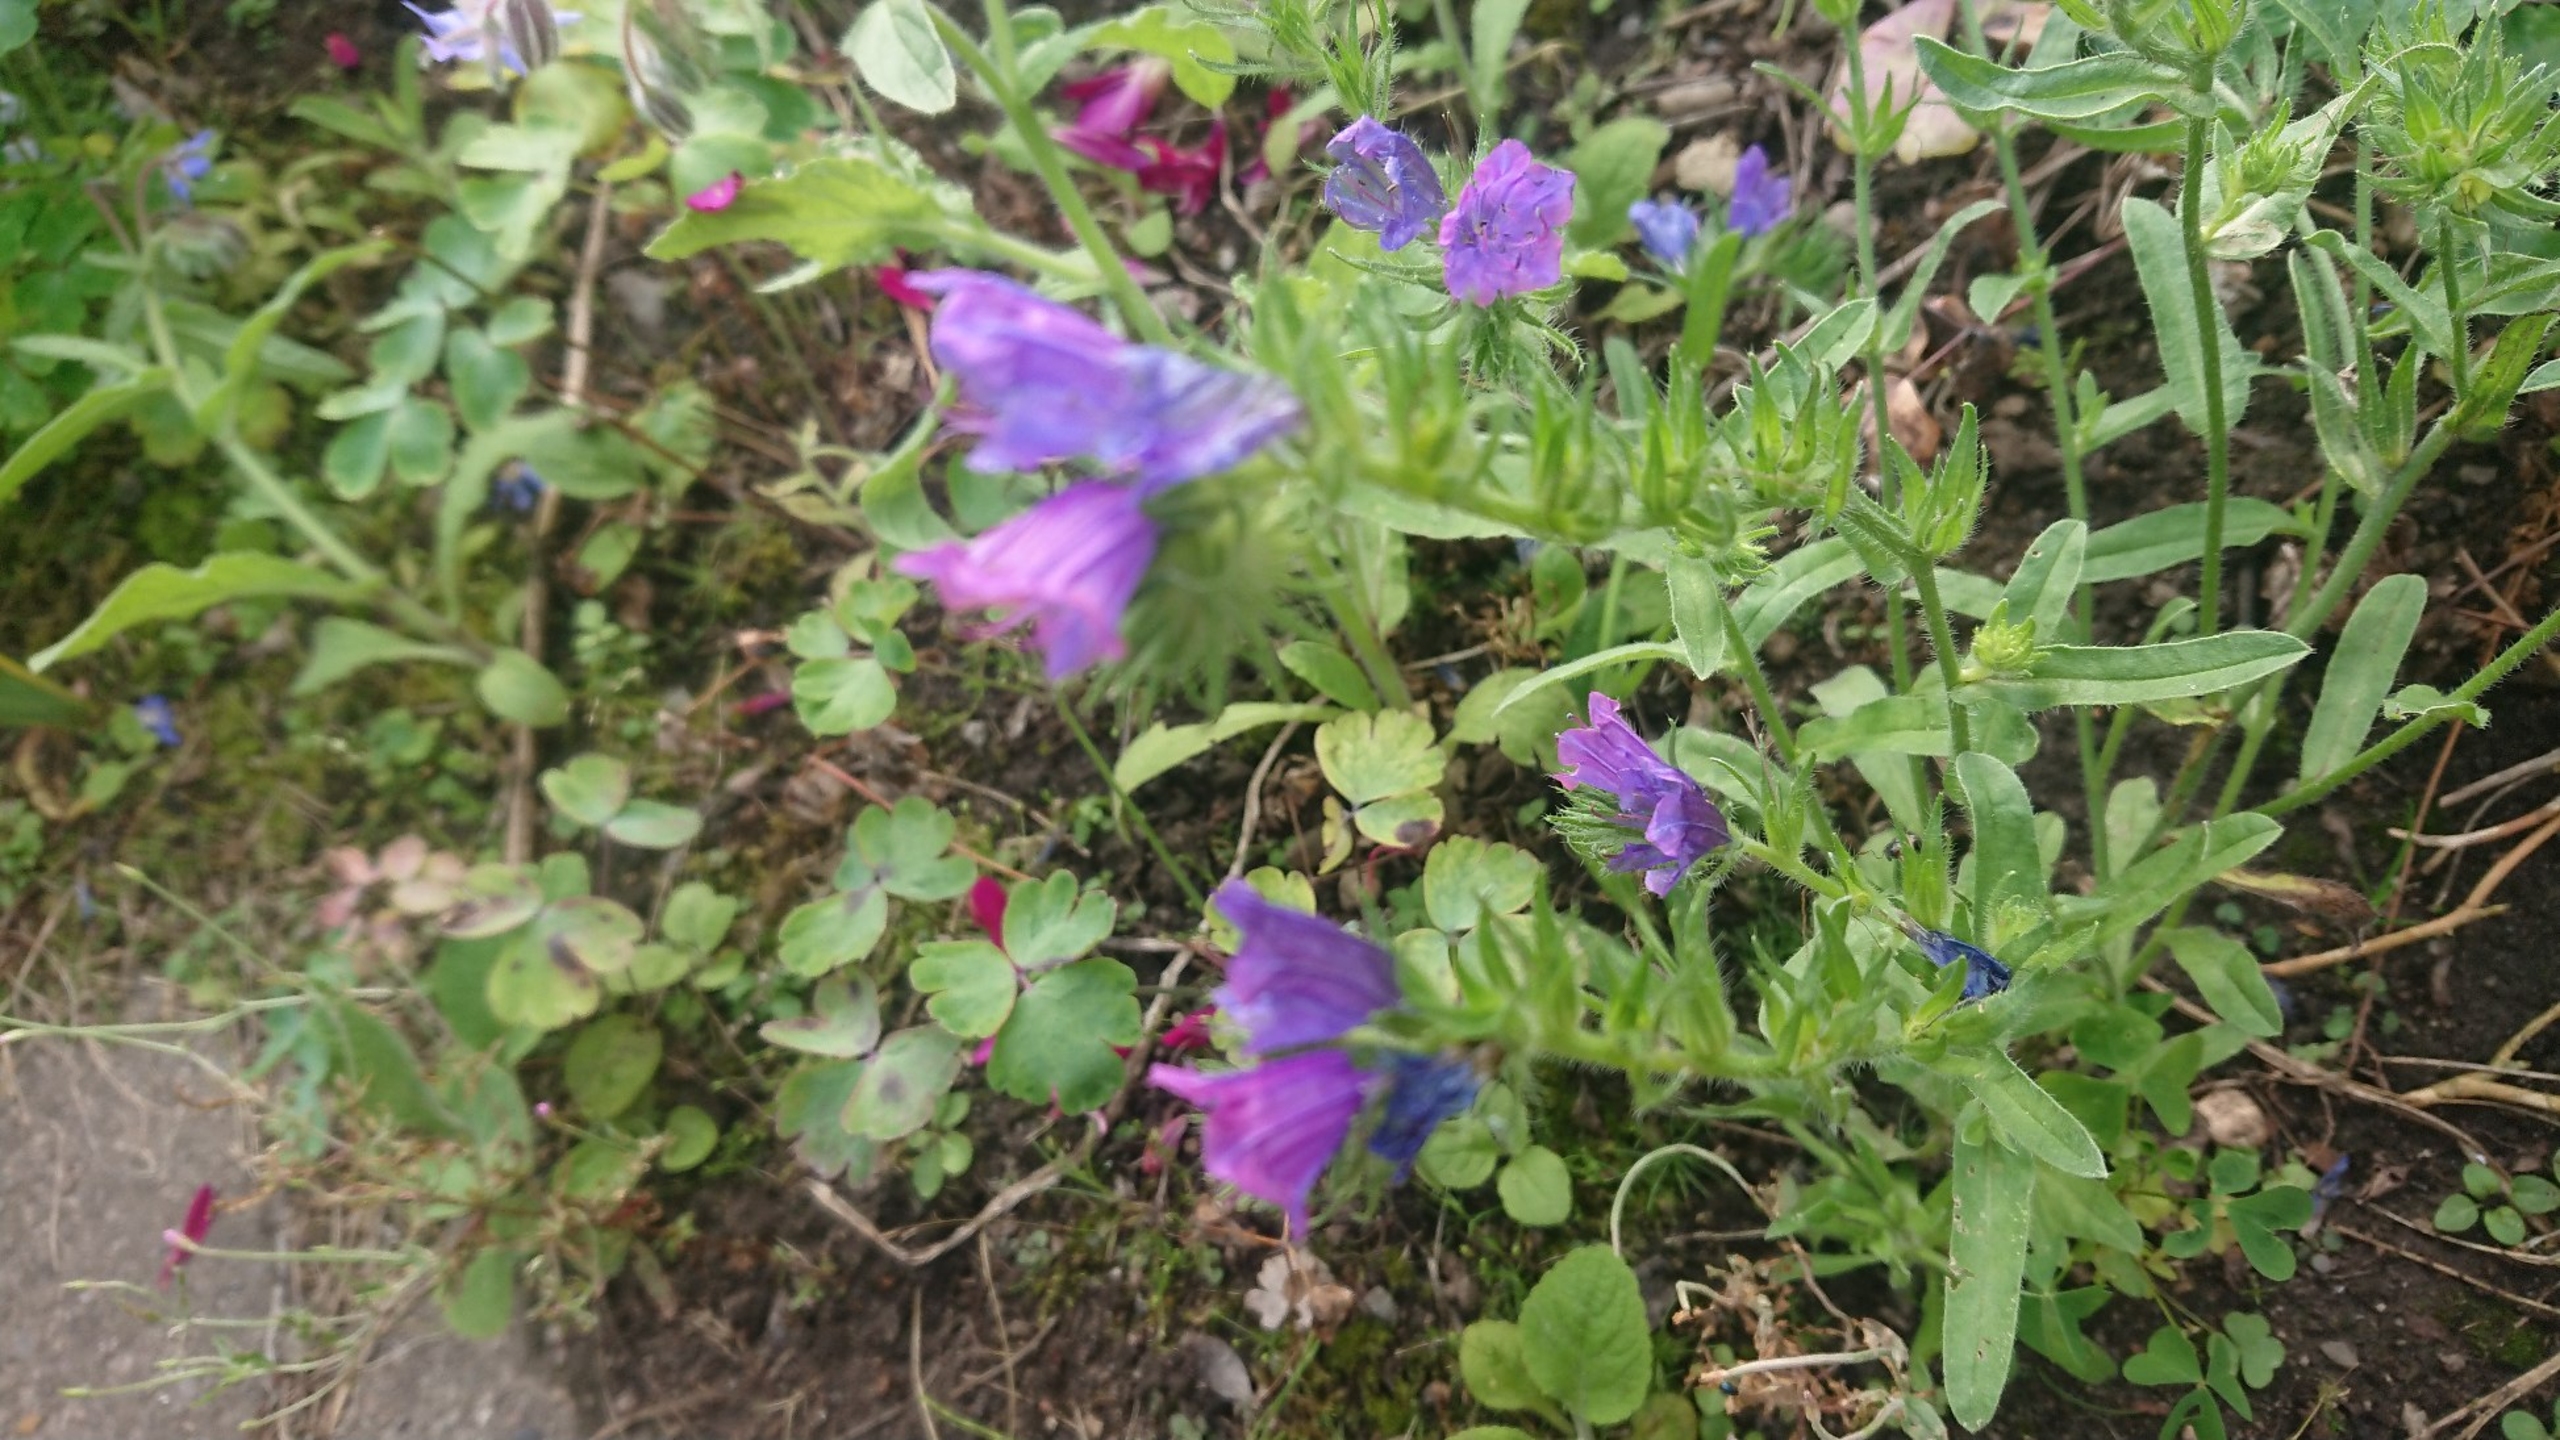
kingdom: Plantae
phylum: Tracheophyta
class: Magnoliopsida
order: Boraginales
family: Boraginaceae
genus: Echium
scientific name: Echium plantagineum
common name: Vejbred-slangehoved
